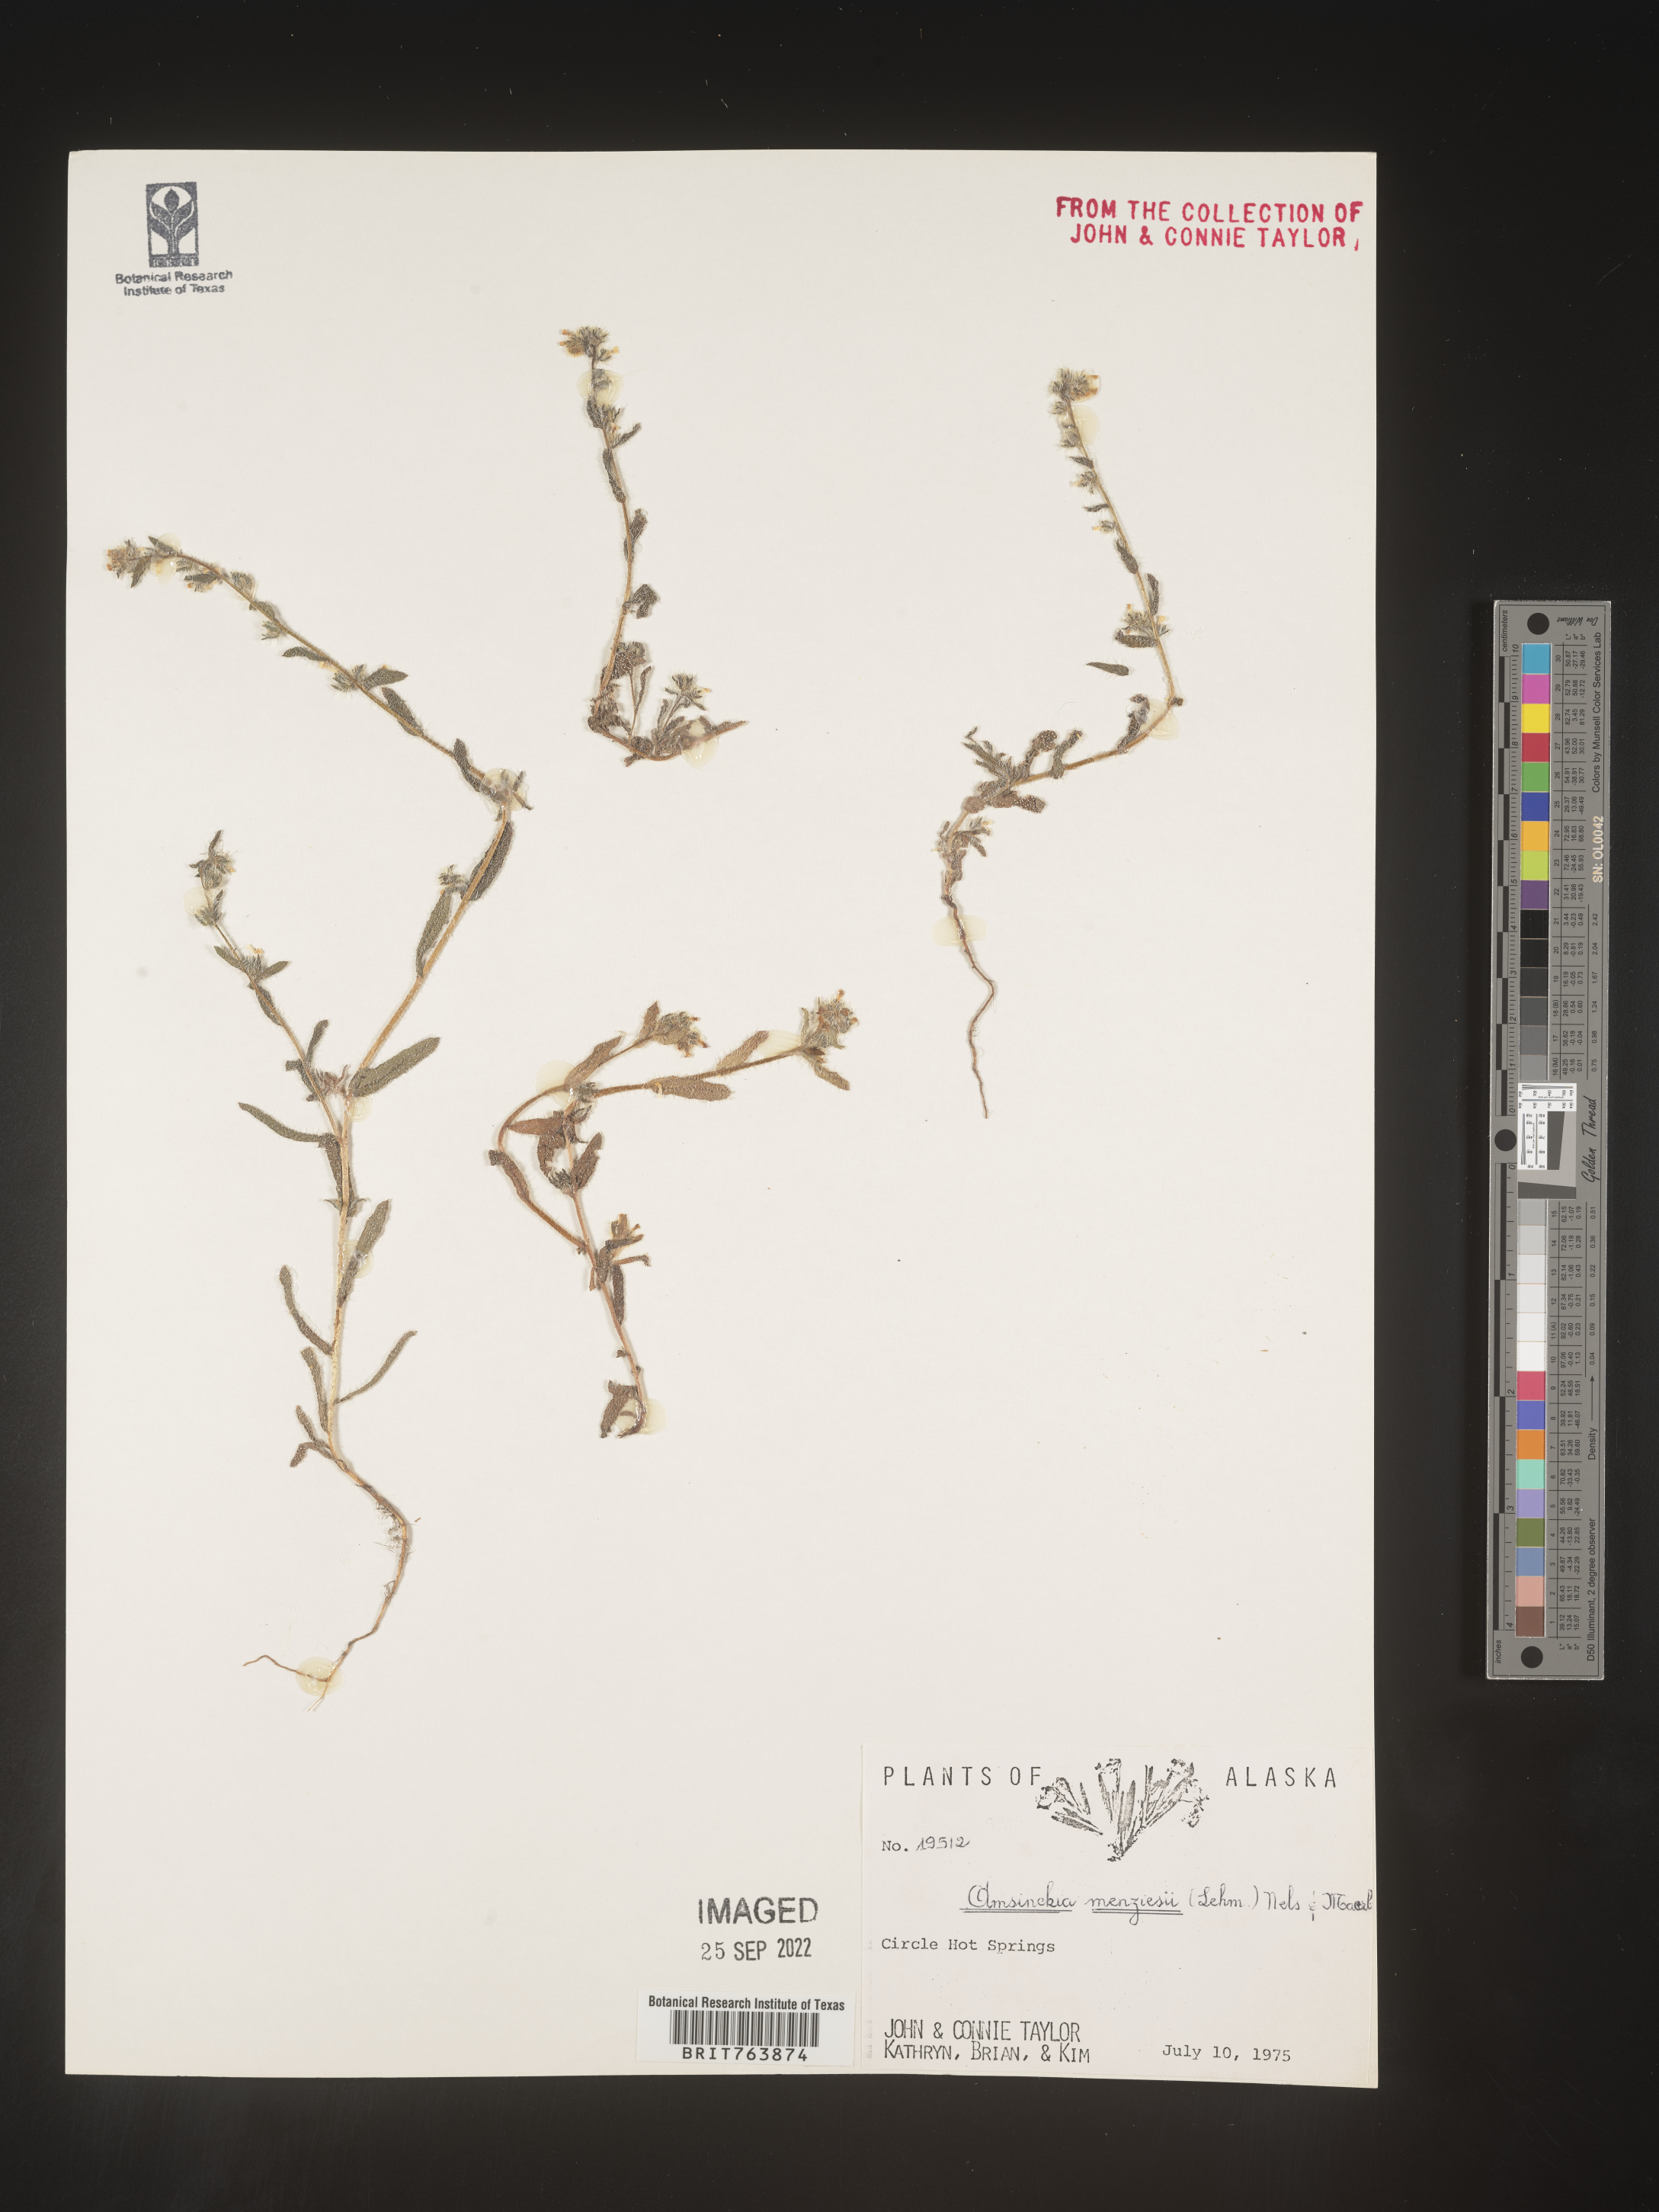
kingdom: Plantae
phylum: Tracheophyta
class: Magnoliopsida
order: Boraginales
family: Boraginaceae
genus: Amsinckia
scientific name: Amsinckia menziesii
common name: Menzies' fiddleneck
